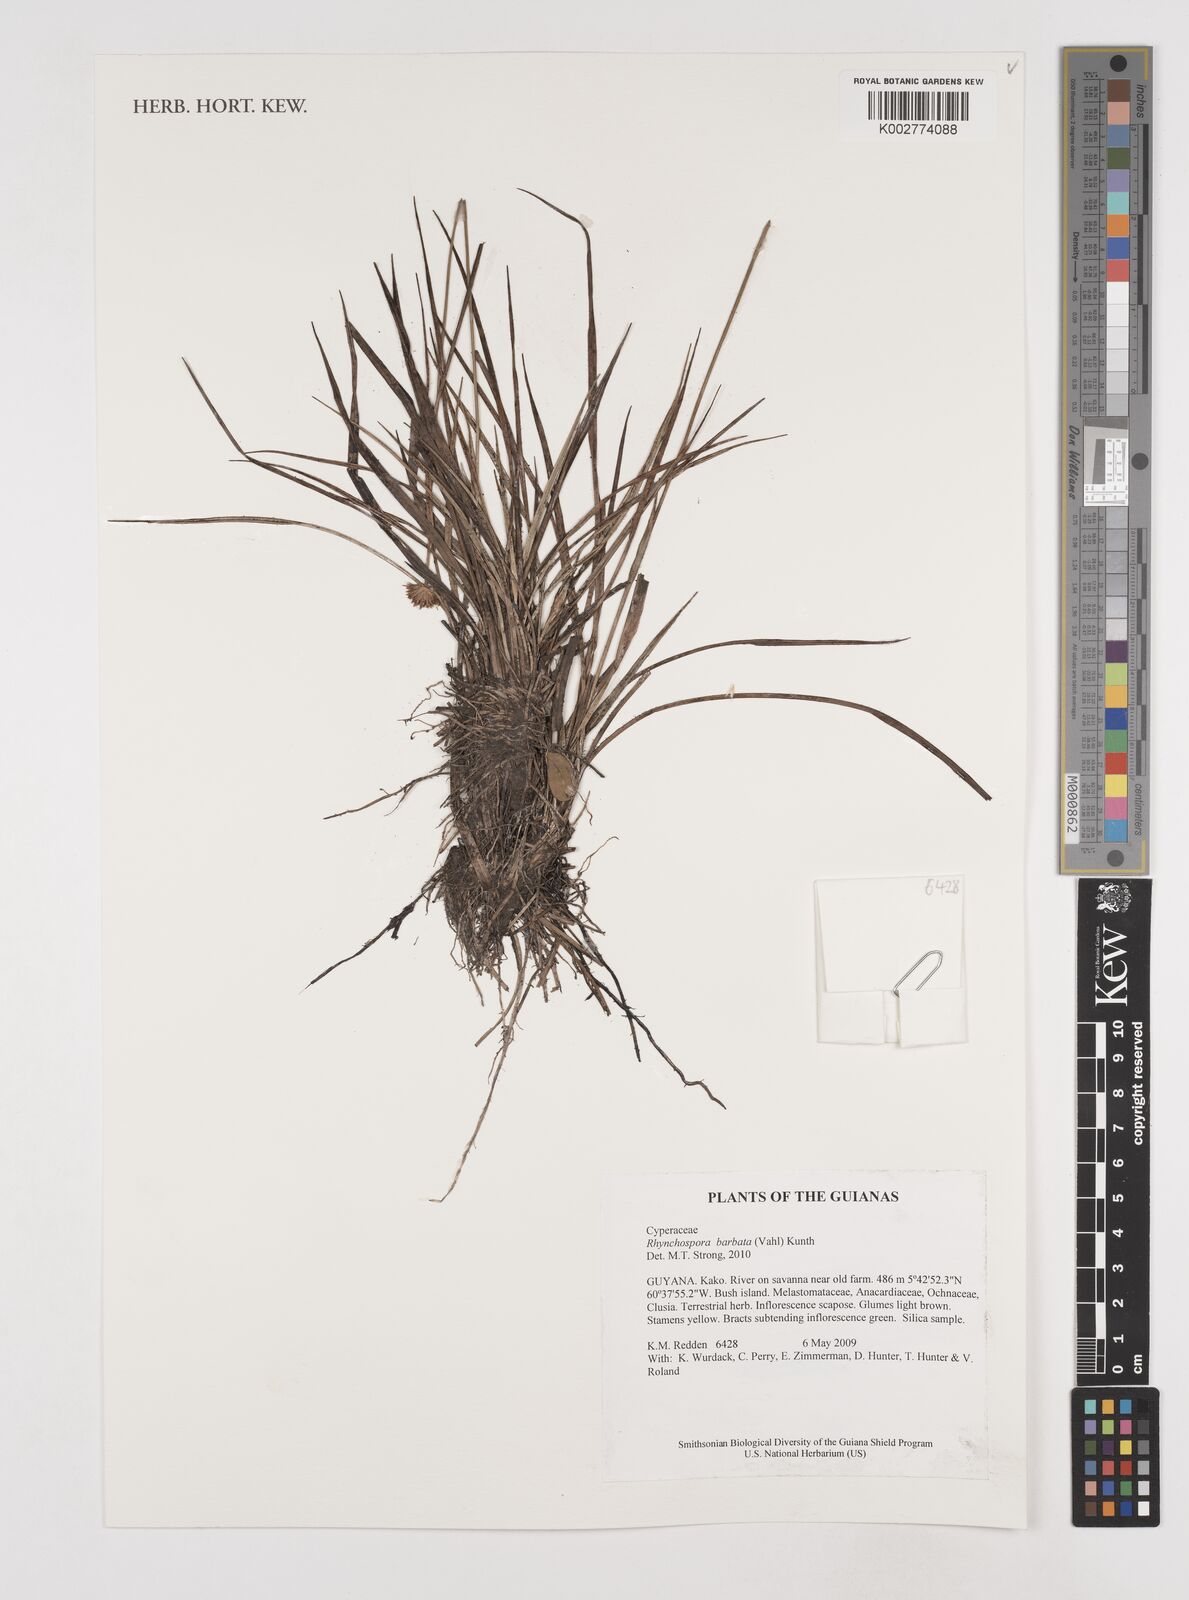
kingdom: Plantae
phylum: Tracheophyta
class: Liliopsida
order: Poales
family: Cyperaceae
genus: Rhynchospora
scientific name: Rhynchospora barbata
